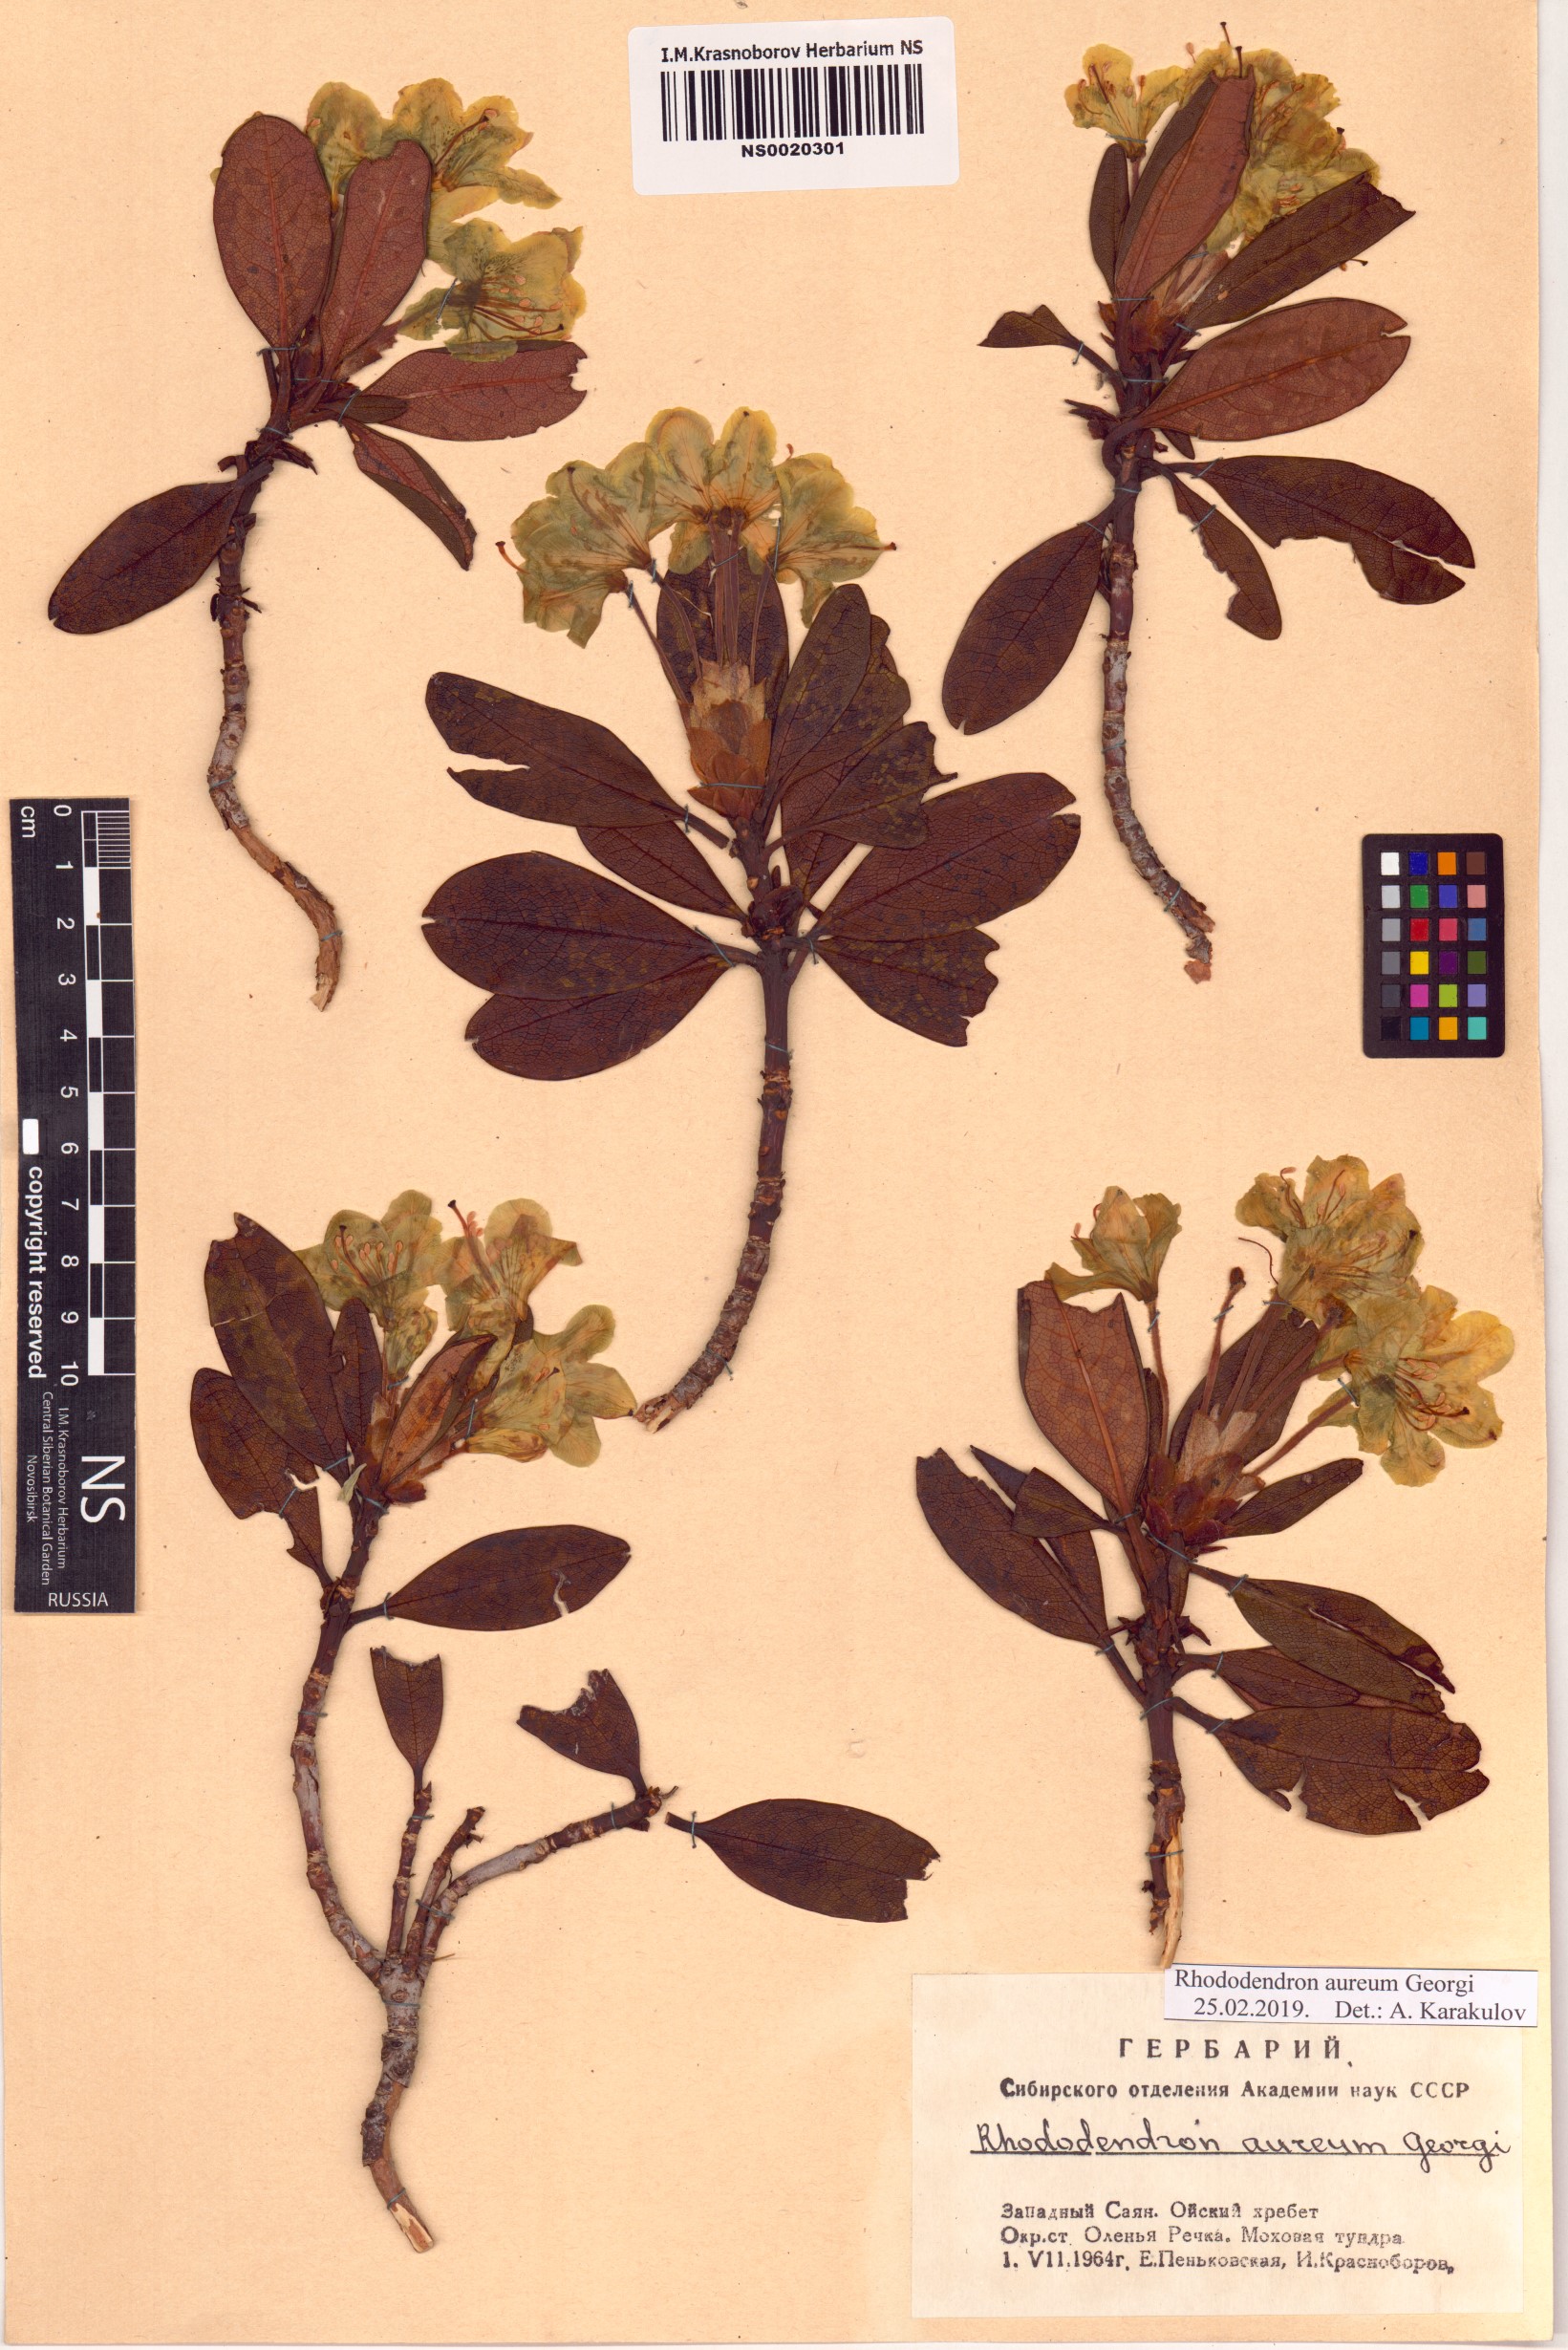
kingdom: Plantae
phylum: Tracheophyta
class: Magnoliopsida
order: Ericales
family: Ericaceae
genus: Rhododendron
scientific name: Rhododendron aureum
